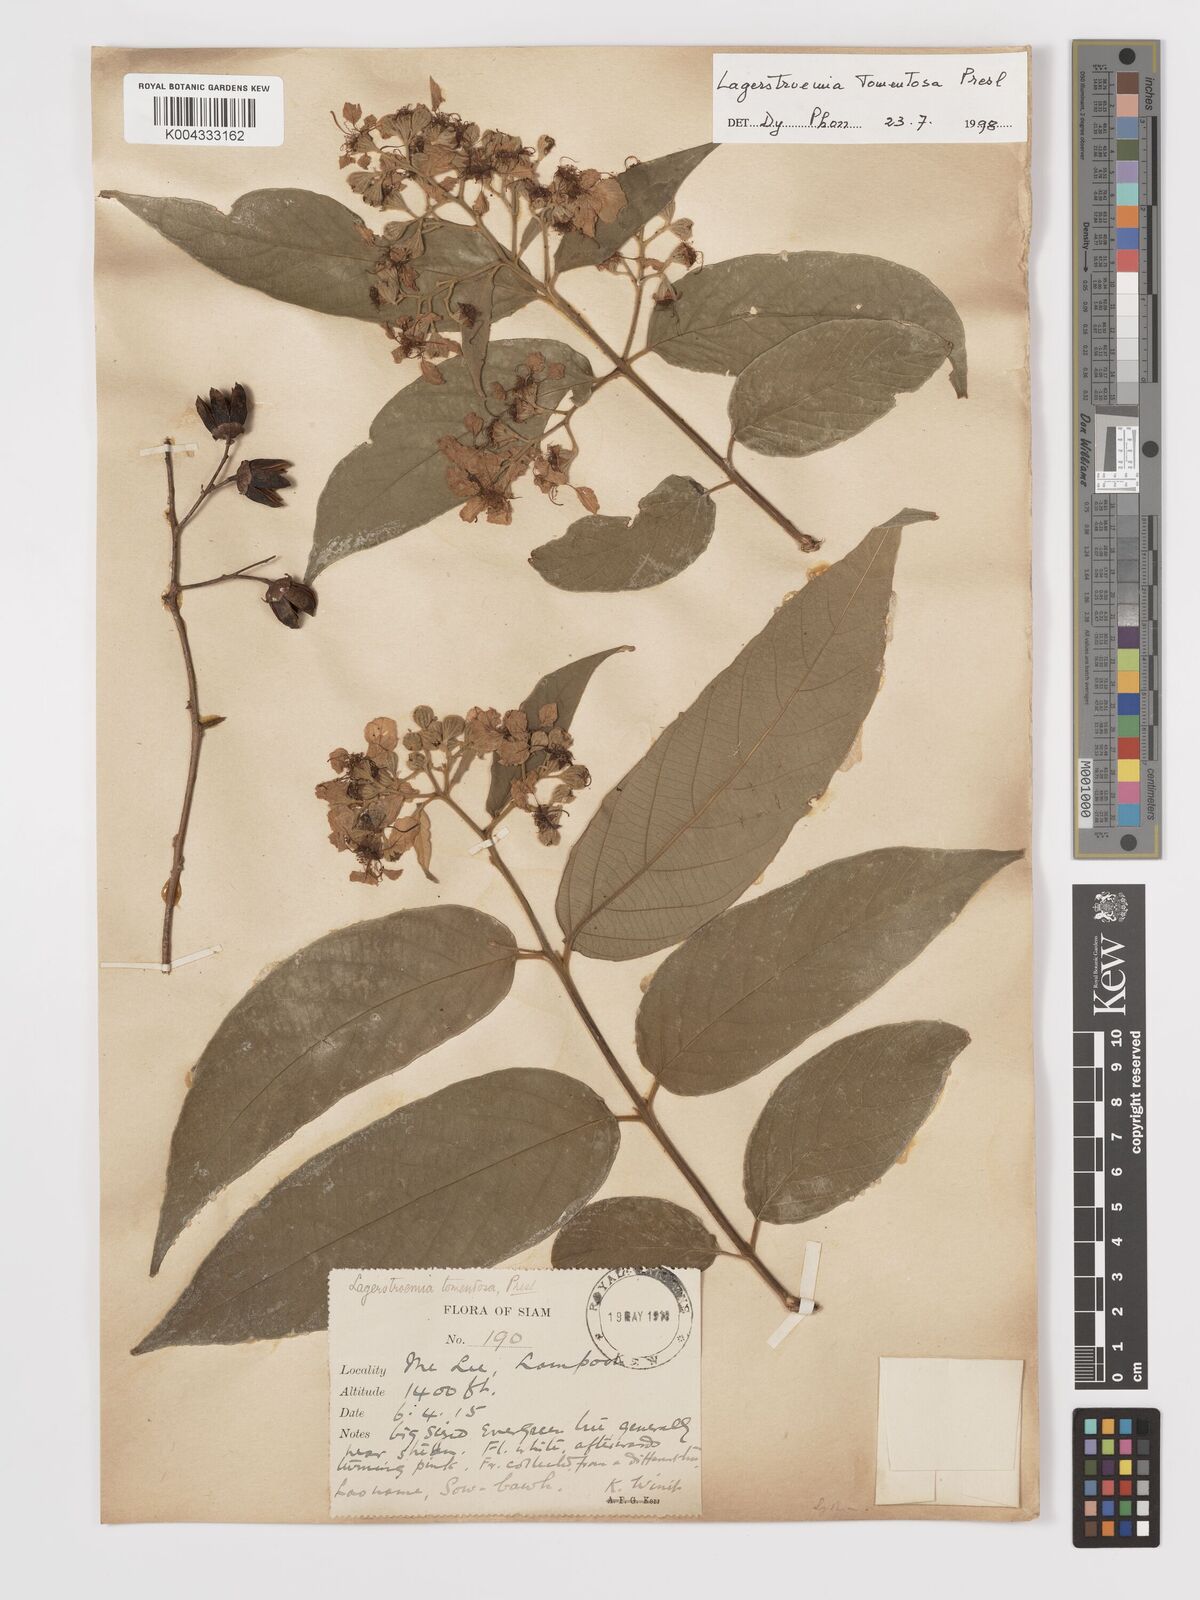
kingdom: Plantae
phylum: Tracheophyta
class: Magnoliopsida
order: Myrtales
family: Lythraceae
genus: Lagerstroemia
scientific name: Lagerstroemia tomentosa
